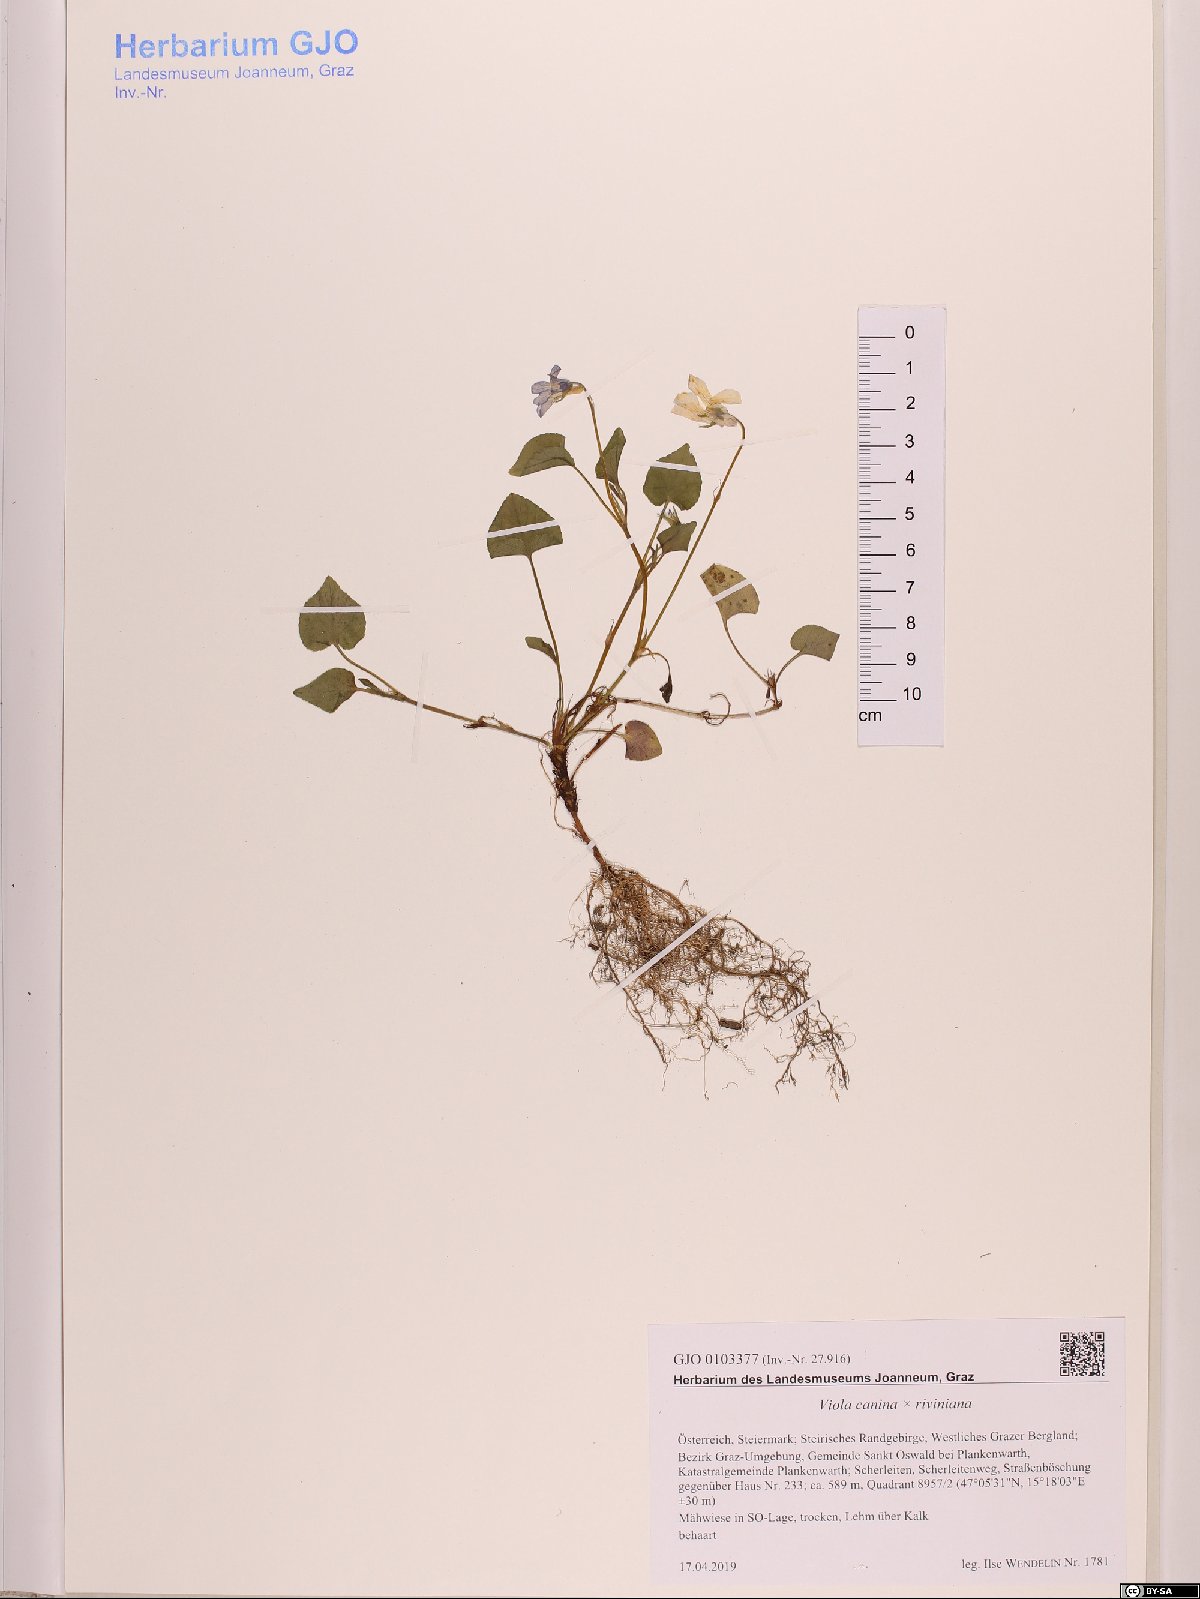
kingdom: Plantae
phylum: Tracheophyta
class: Magnoliopsida
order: Malpighiales
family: Violaceae
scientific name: Violaceae
